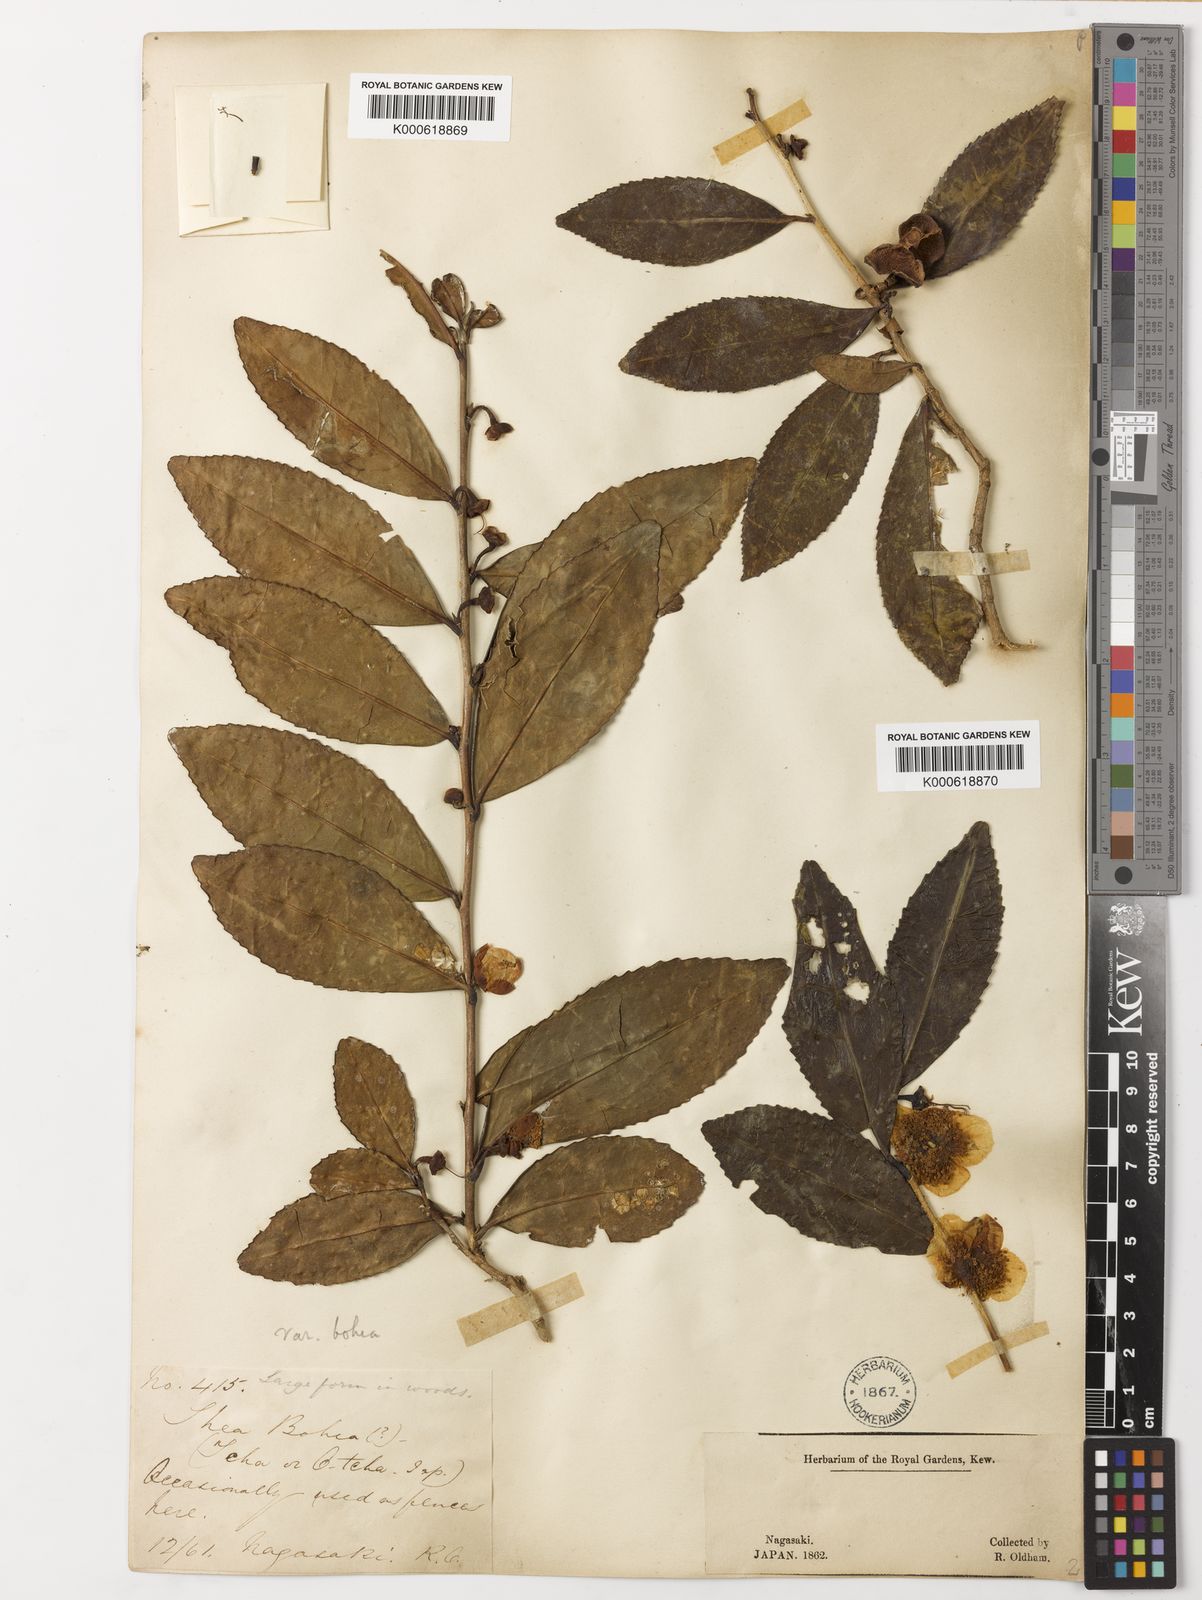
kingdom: Plantae
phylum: Tracheophyta
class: Magnoliopsida
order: Ericales
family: Theaceae
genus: Camellia
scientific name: Camellia sinensis
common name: Tea
